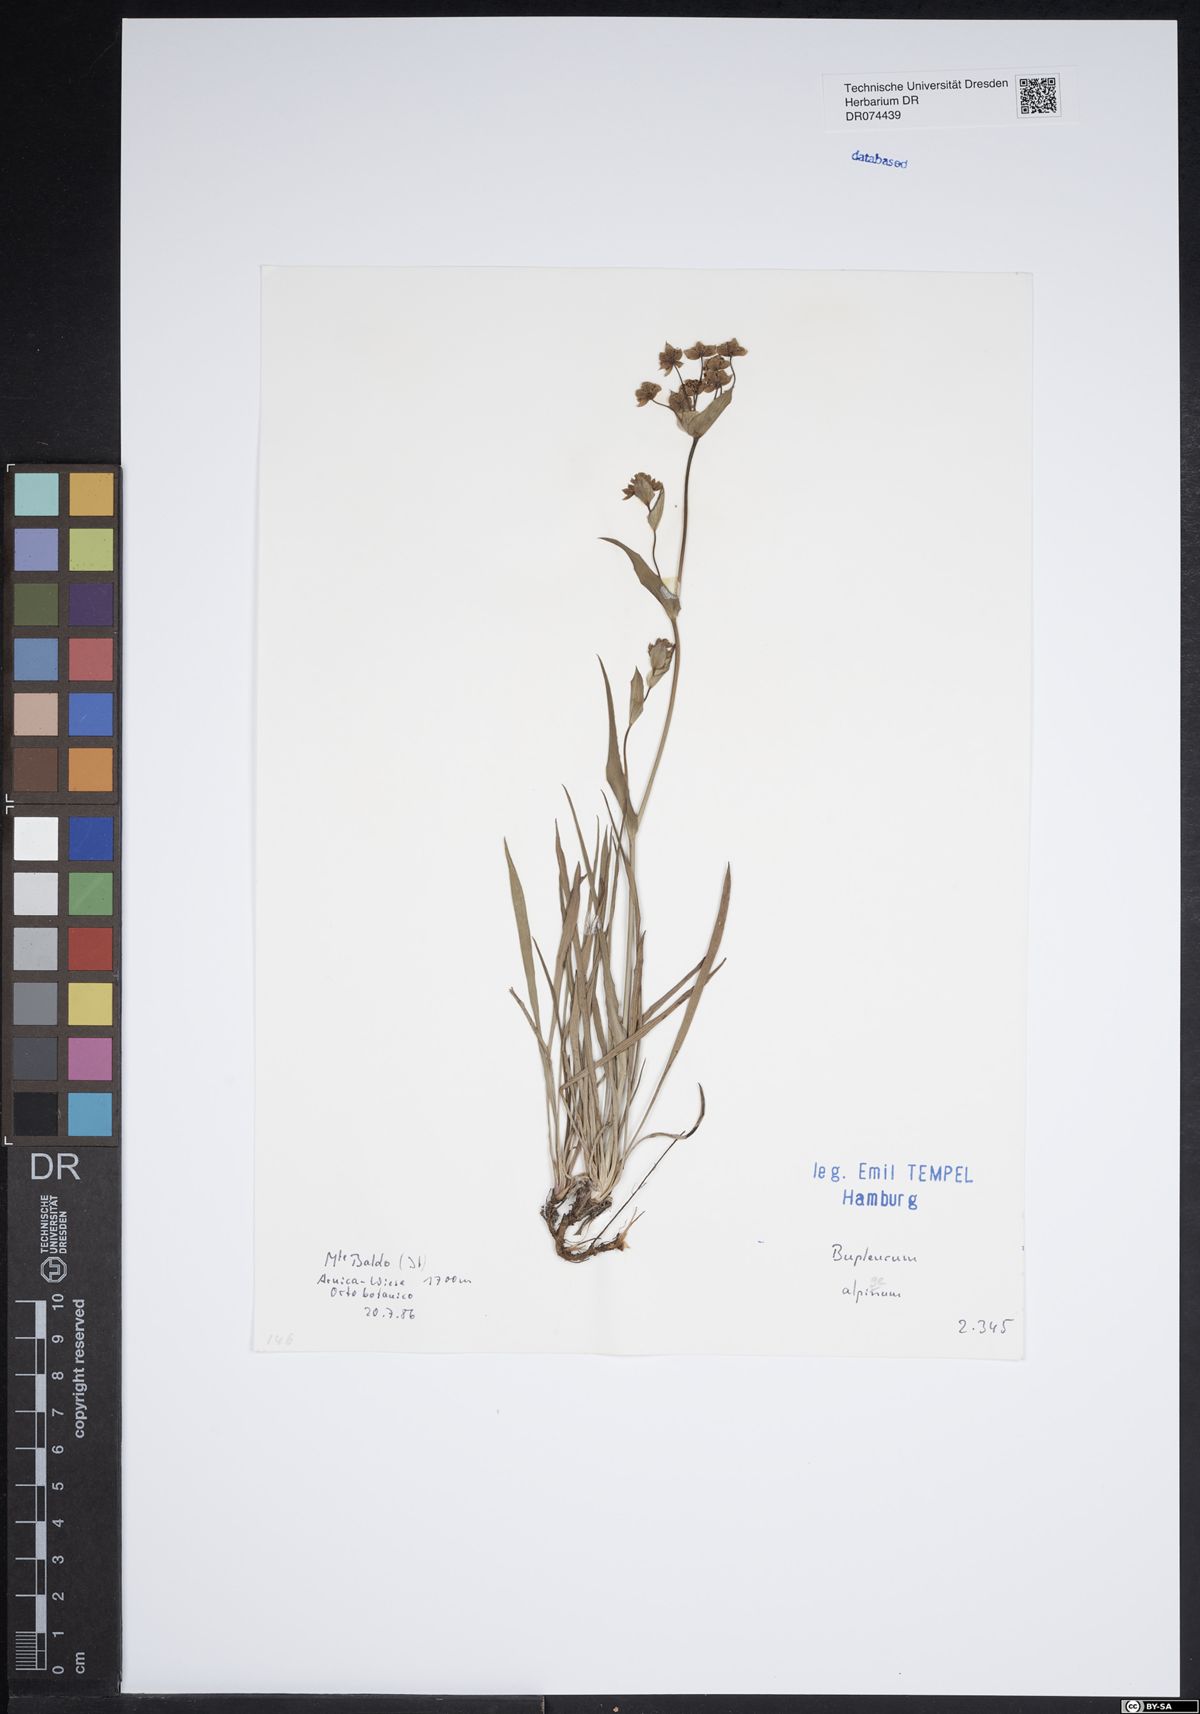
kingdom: Plantae
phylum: Tracheophyta
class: Magnoliopsida
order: Apiales
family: Apiaceae
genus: Bupleurum
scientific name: Bupleurum alpigenum
